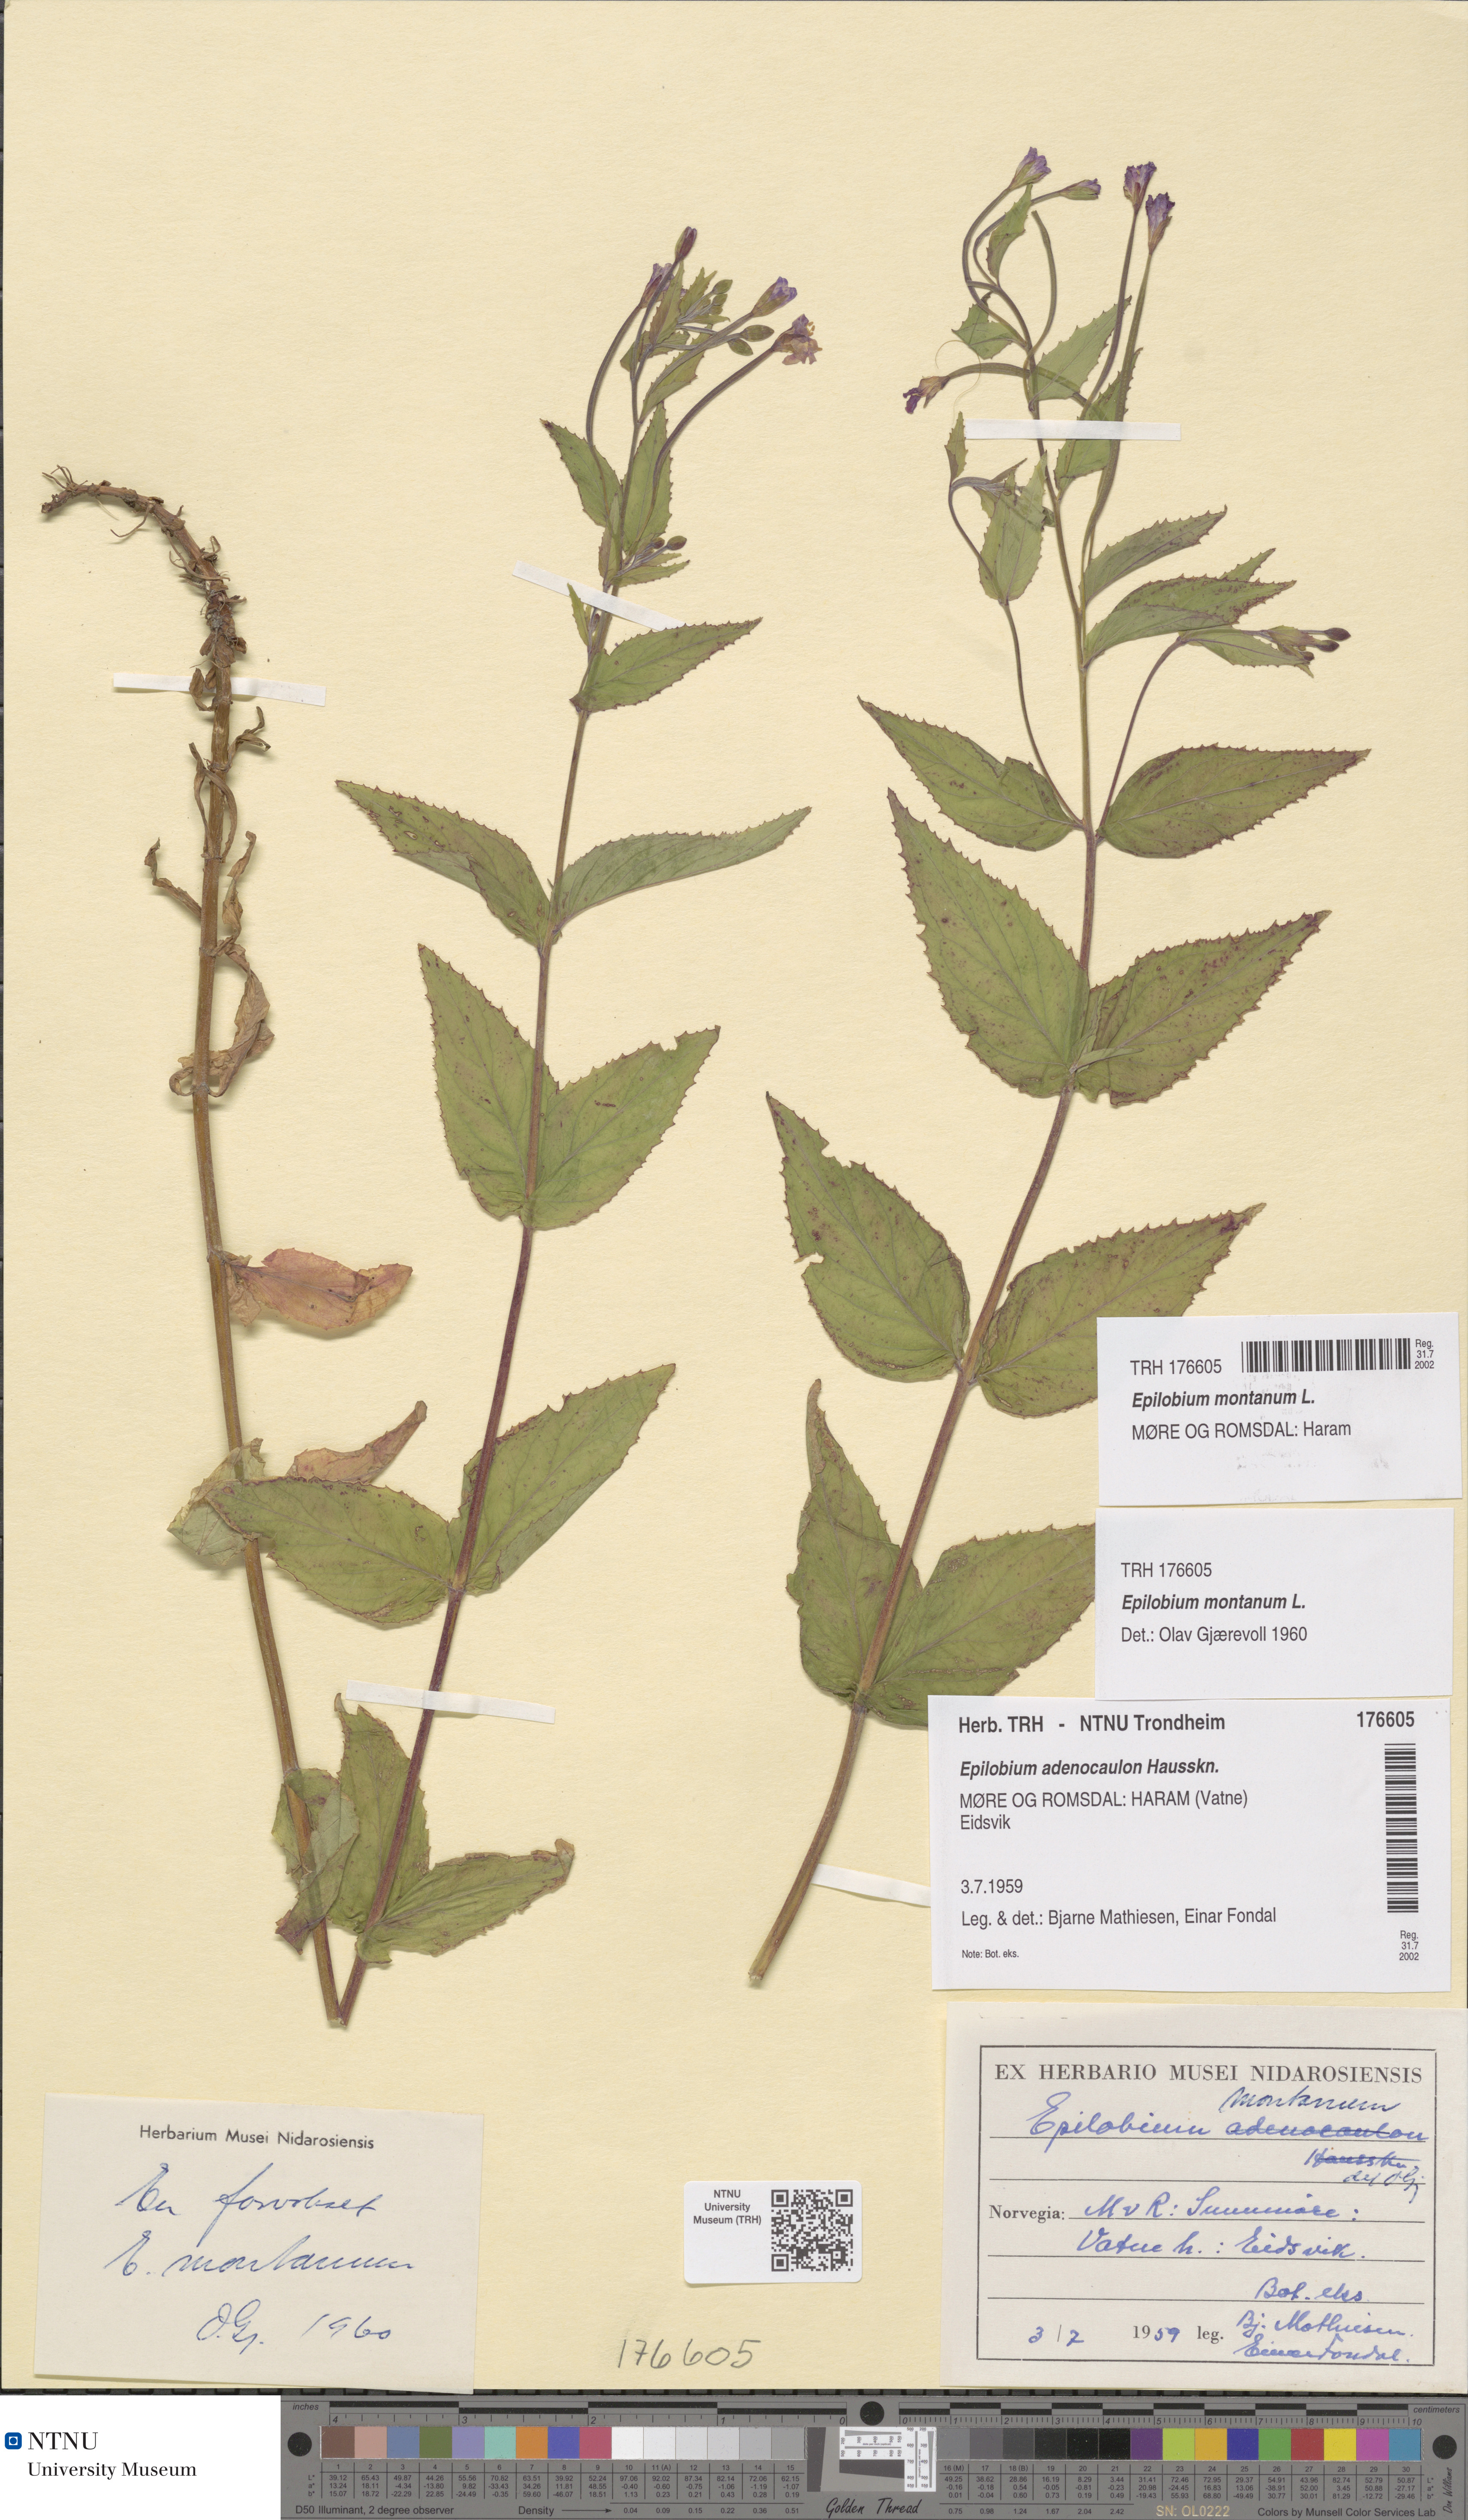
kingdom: Plantae
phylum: Tracheophyta
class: Magnoliopsida
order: Myrtales
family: Onagraceae
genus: Epilobium
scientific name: Epilobium montanum
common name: Broad-leaved willowherb
